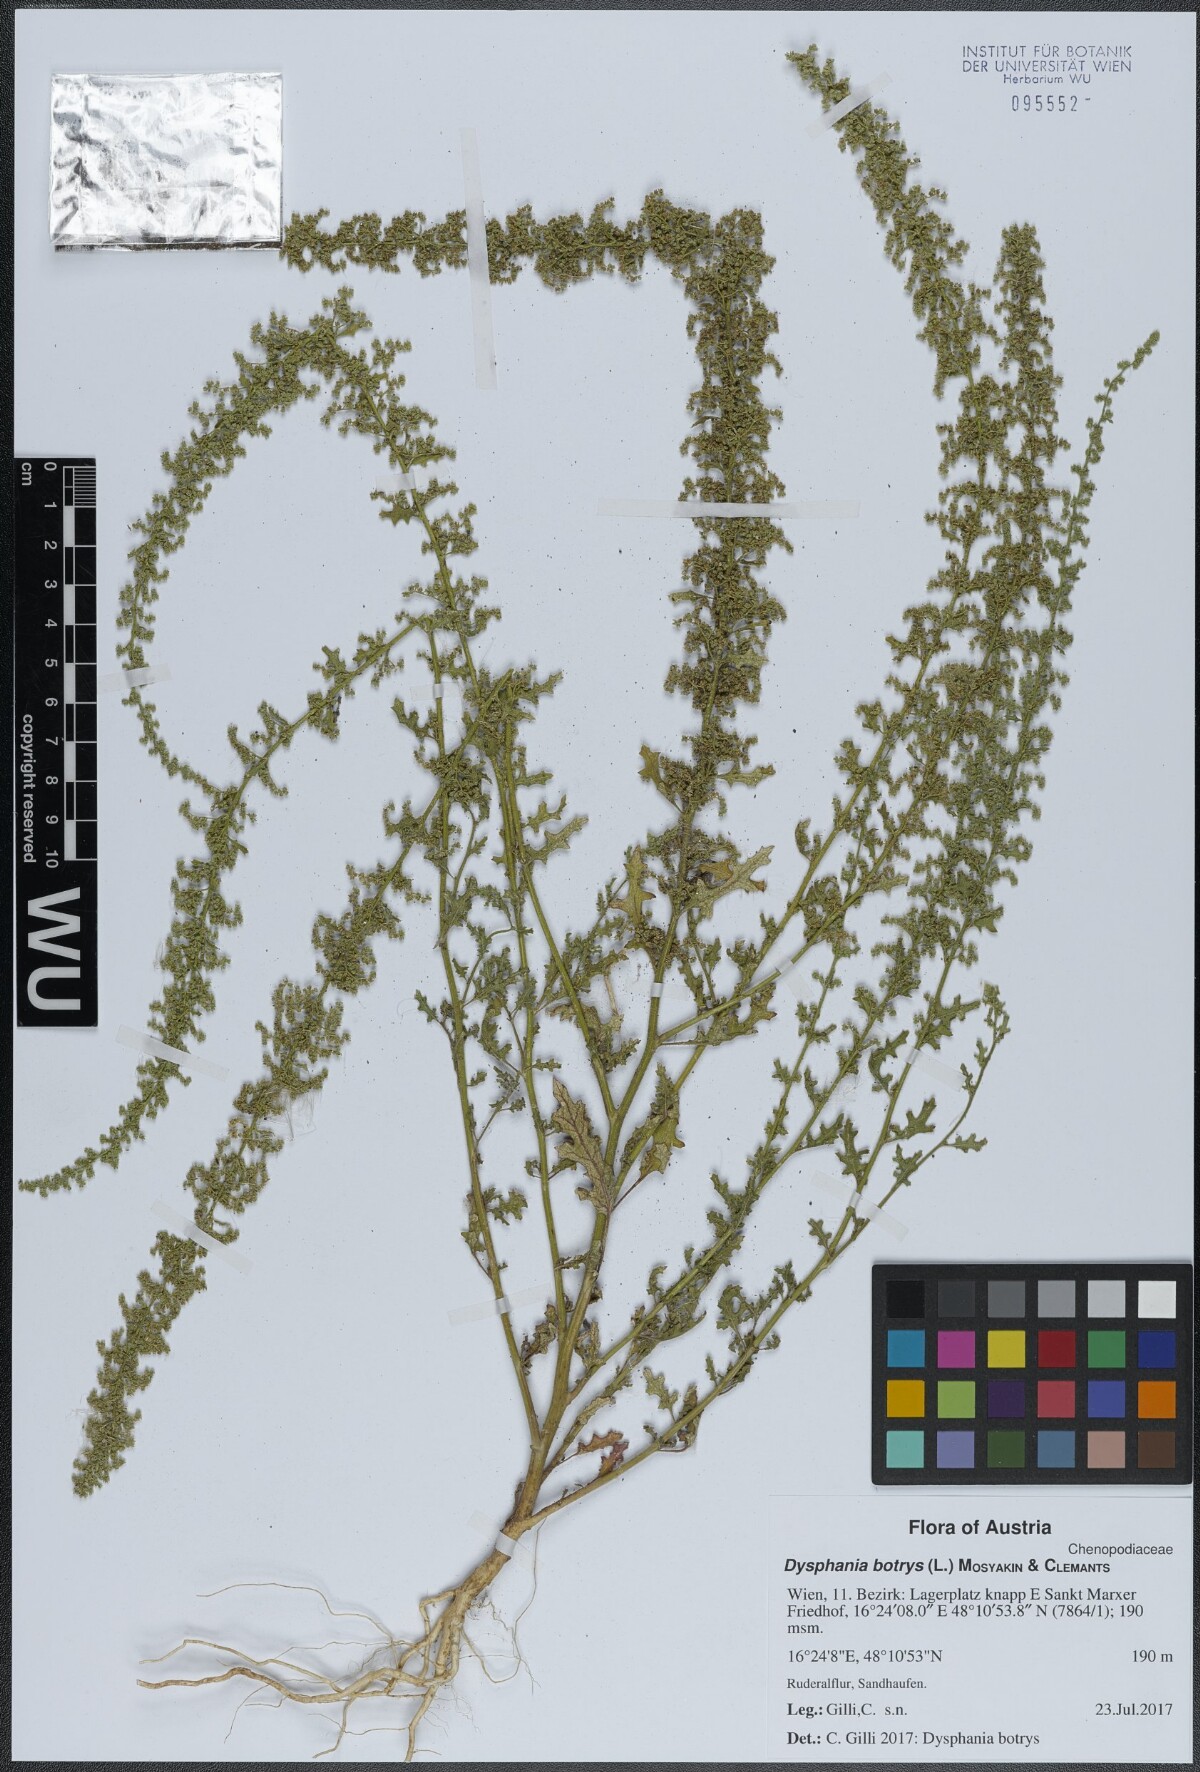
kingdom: Plantae
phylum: Tracheophyta
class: Magnoliopsida
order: Caryophyllales
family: Amaranthaceae
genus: Dysphania
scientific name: Dysphania botrys
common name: Feather-geranium
